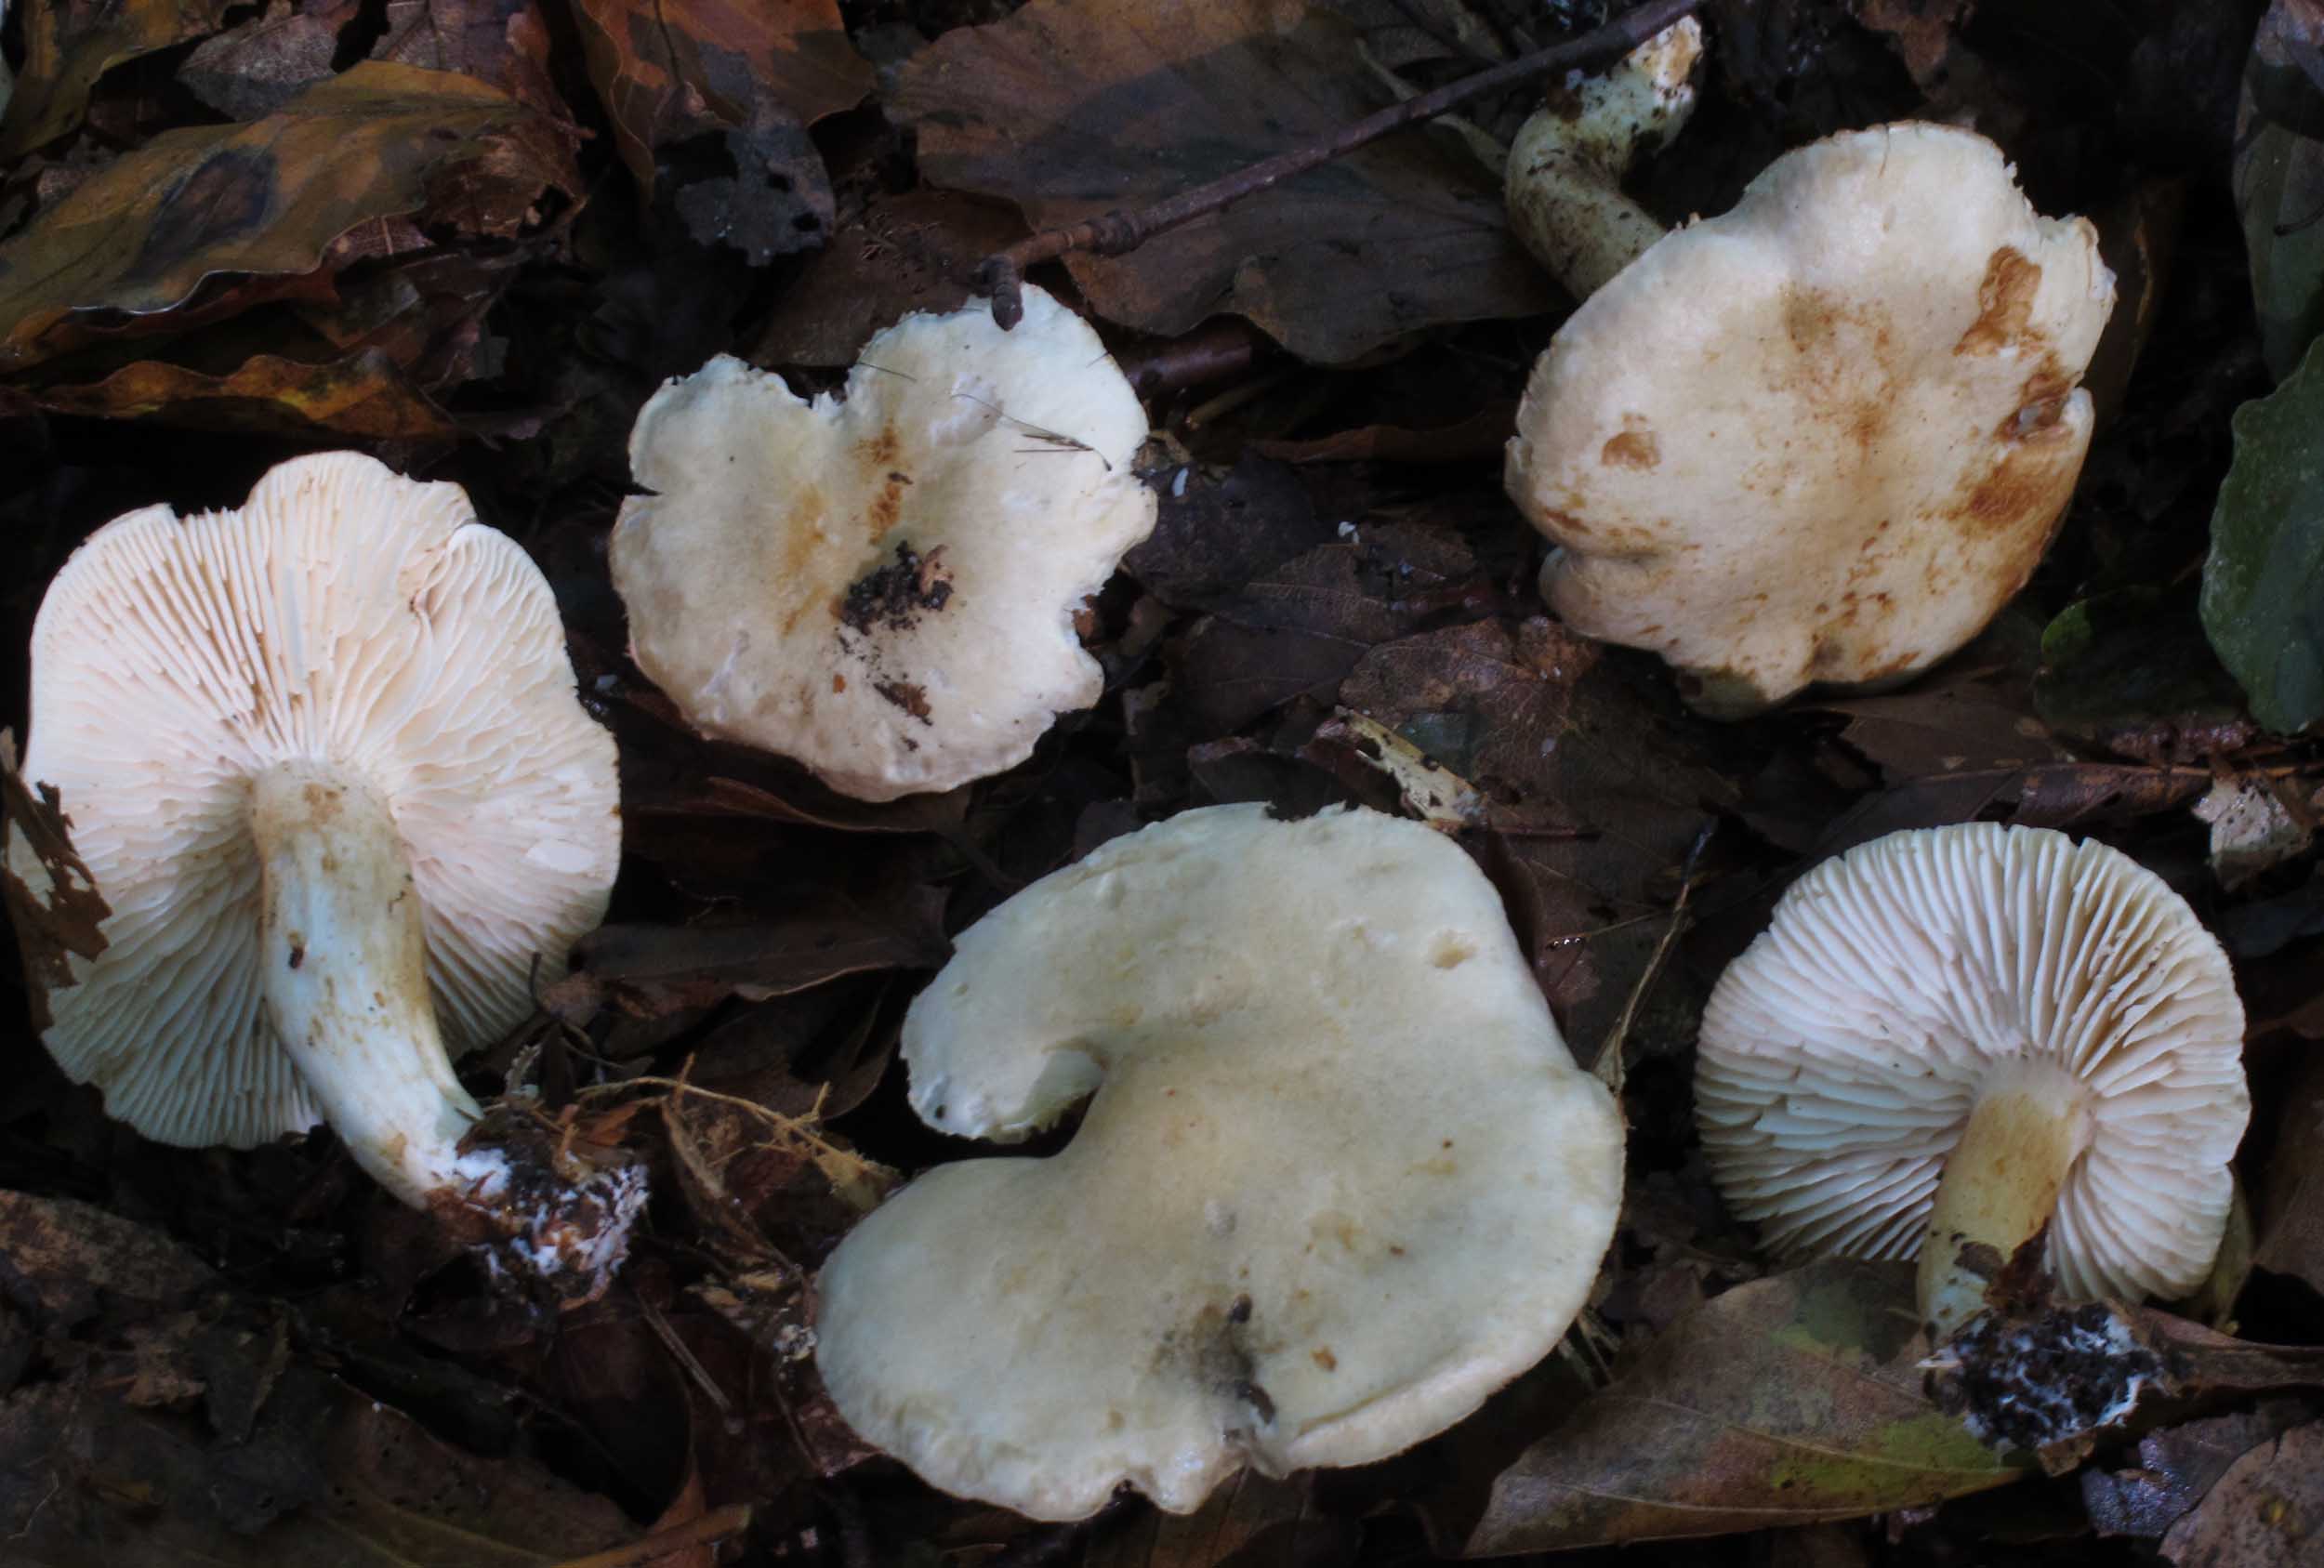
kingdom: Fungi
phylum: Basidiomycota
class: Agaricomycetes
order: Agaricales
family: Tricholomataceae
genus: Tricholoma
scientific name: Tricholoma album
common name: honning-ridderhat
